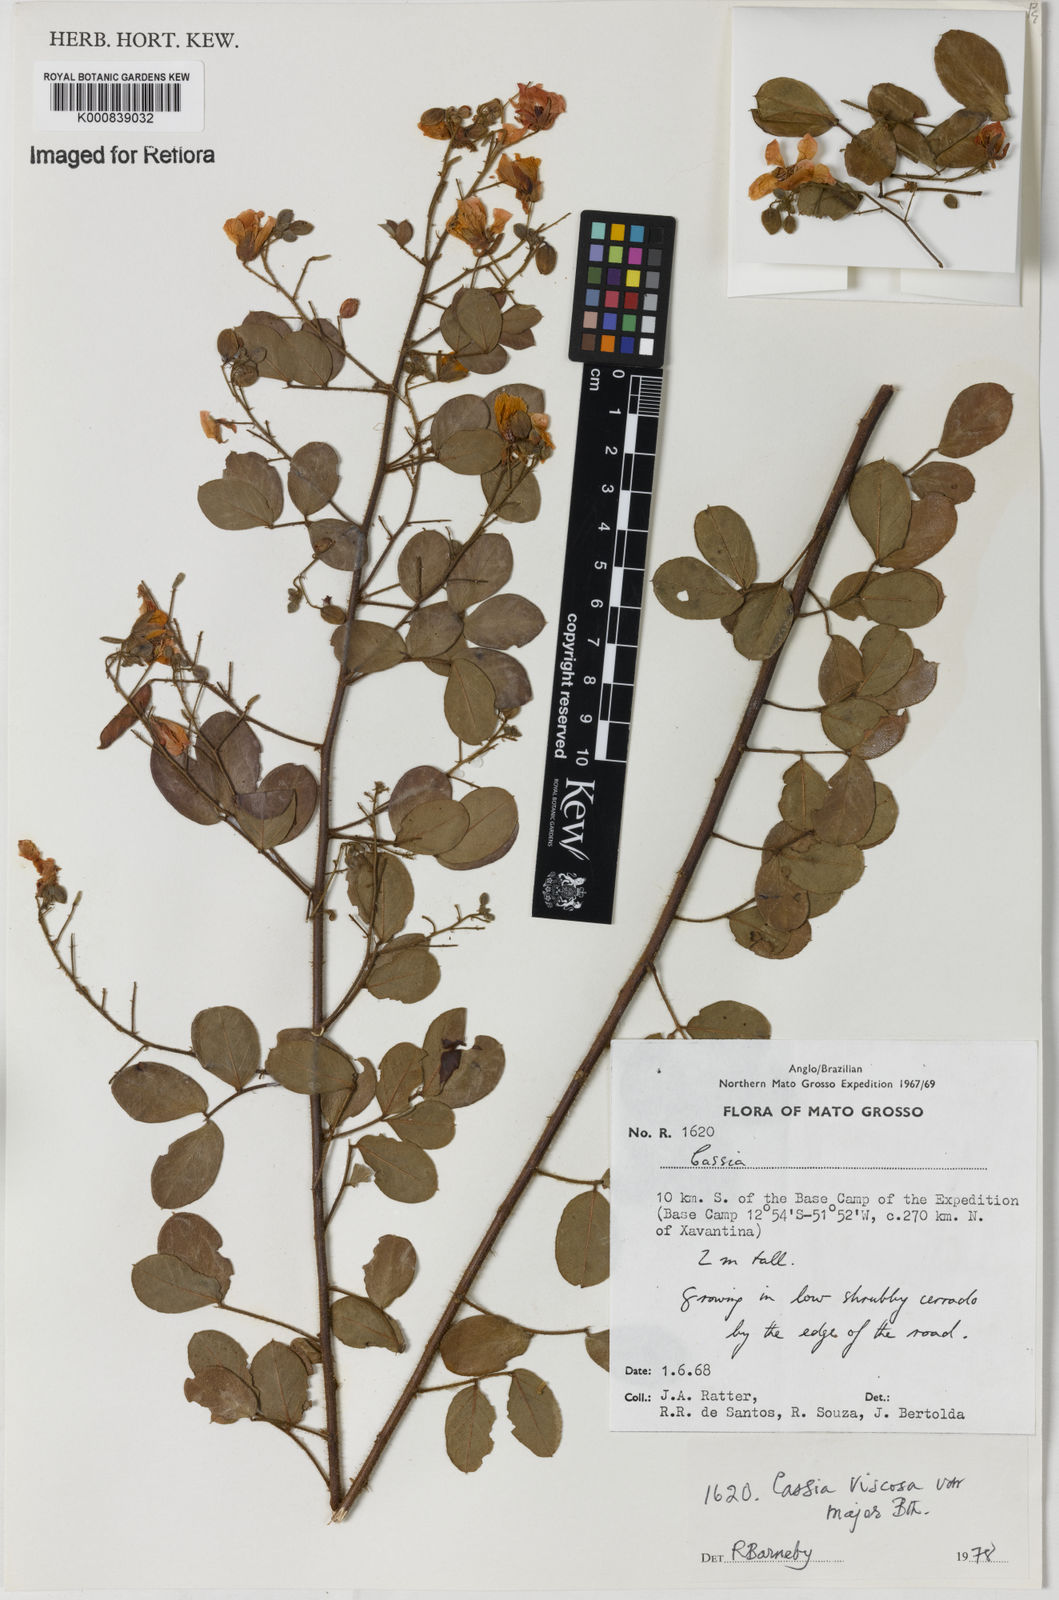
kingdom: Plantae
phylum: Tracheophyta
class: Magnoliopsida
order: Fabales
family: Fabaceae
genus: Chamaecrista
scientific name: Chamaecrista viscosa
